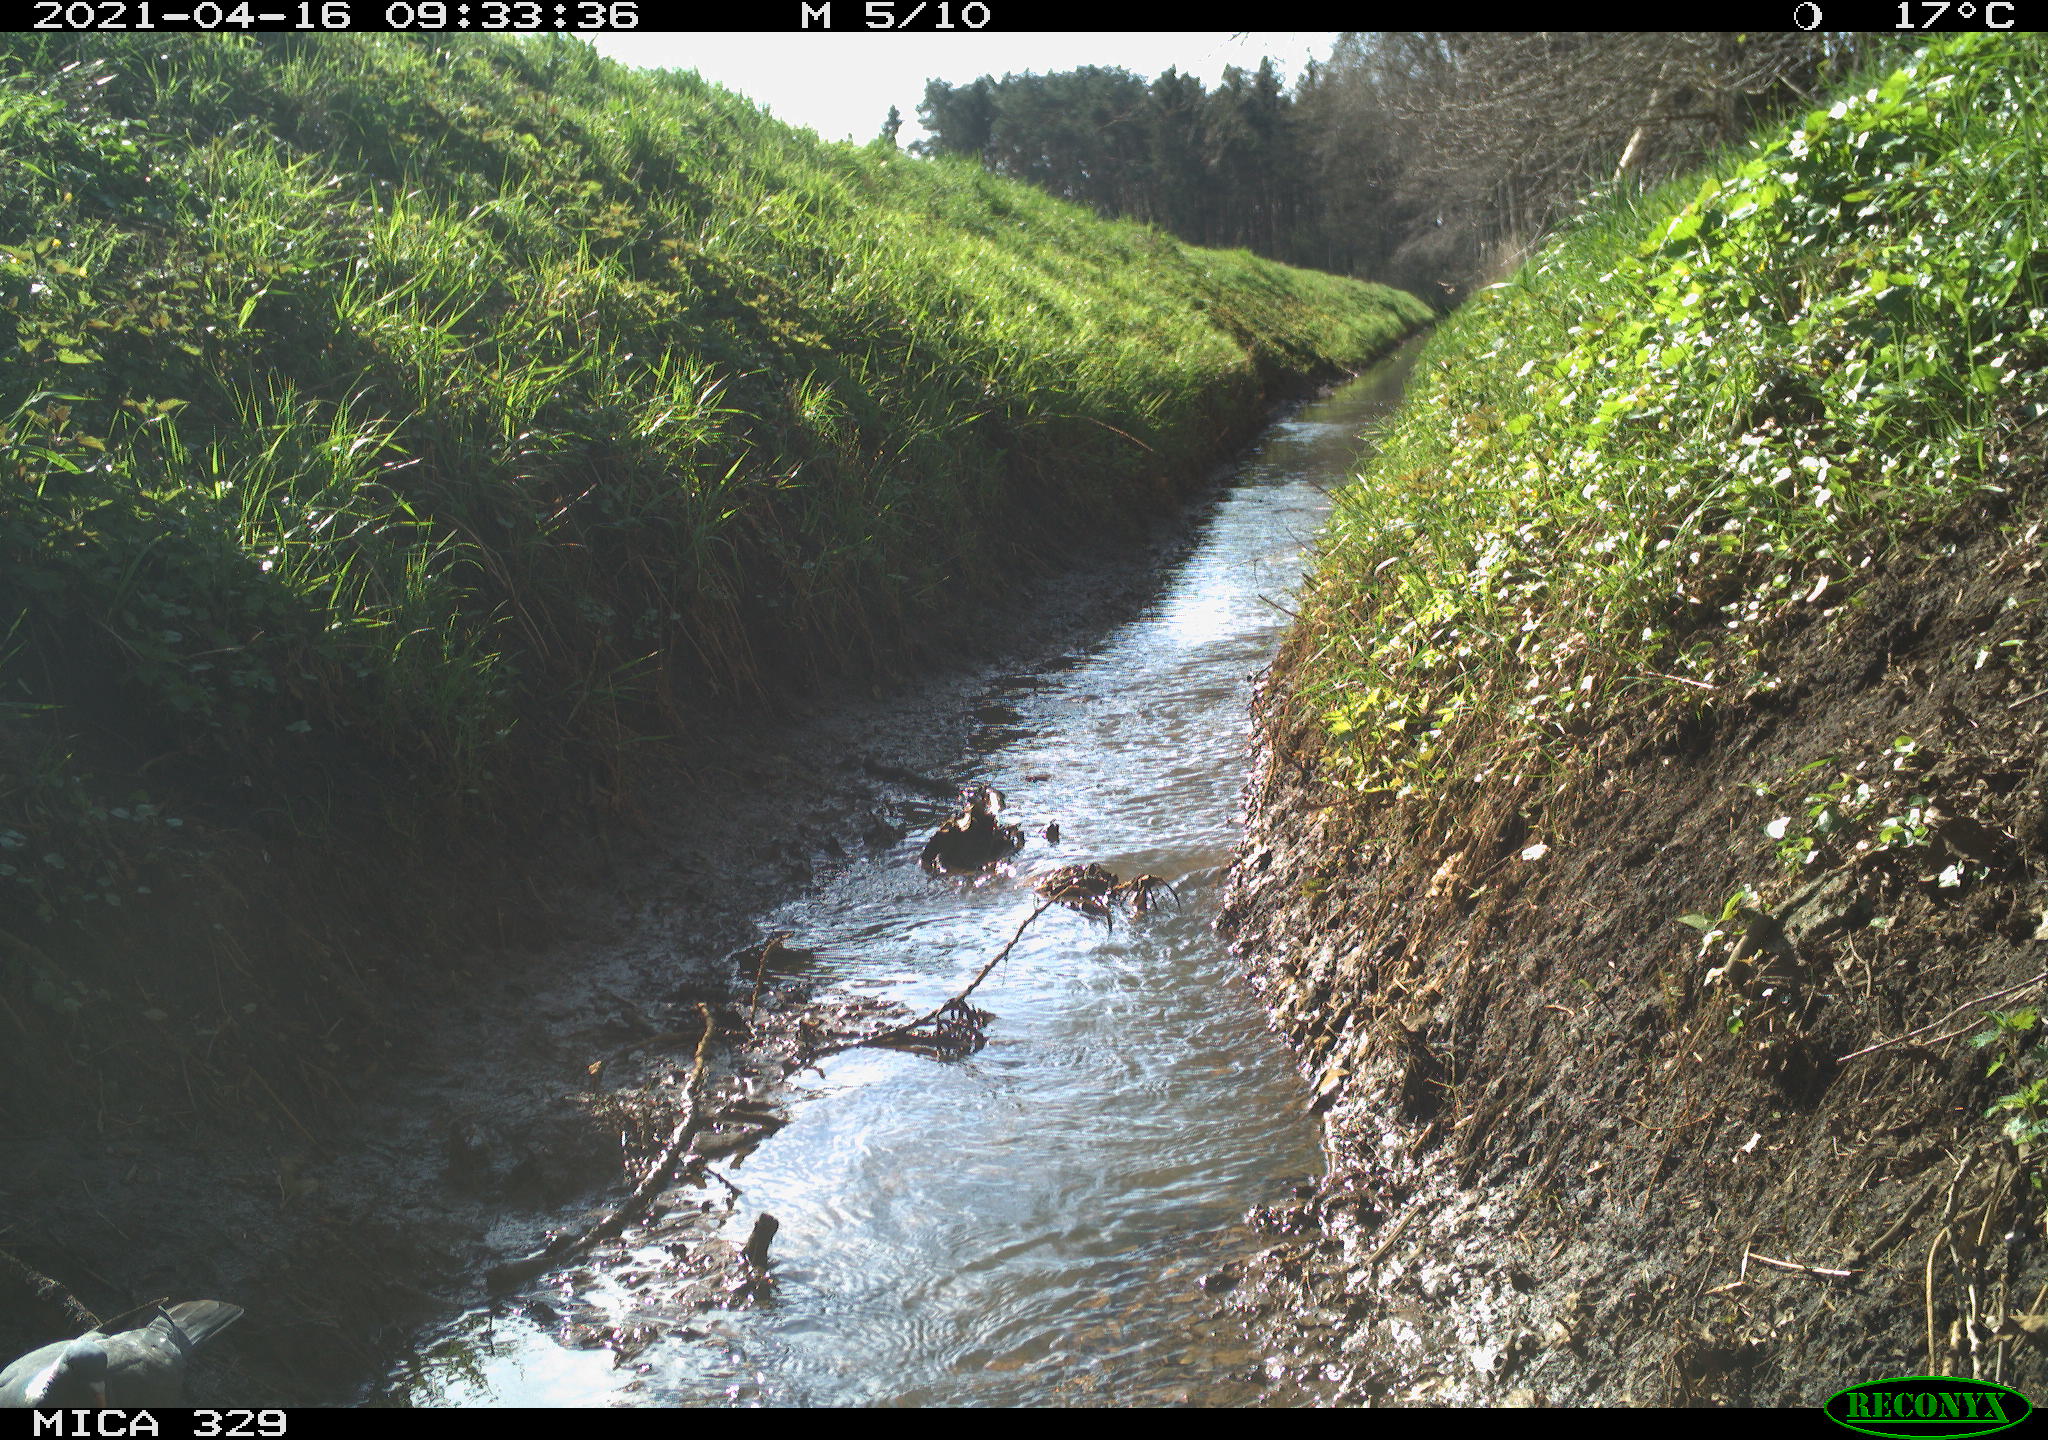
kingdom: Animalia
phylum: Chordata
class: Aves
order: Columbiformes
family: Columbidae
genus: Columba
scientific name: Columba palumbus
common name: Common wood pigeon
